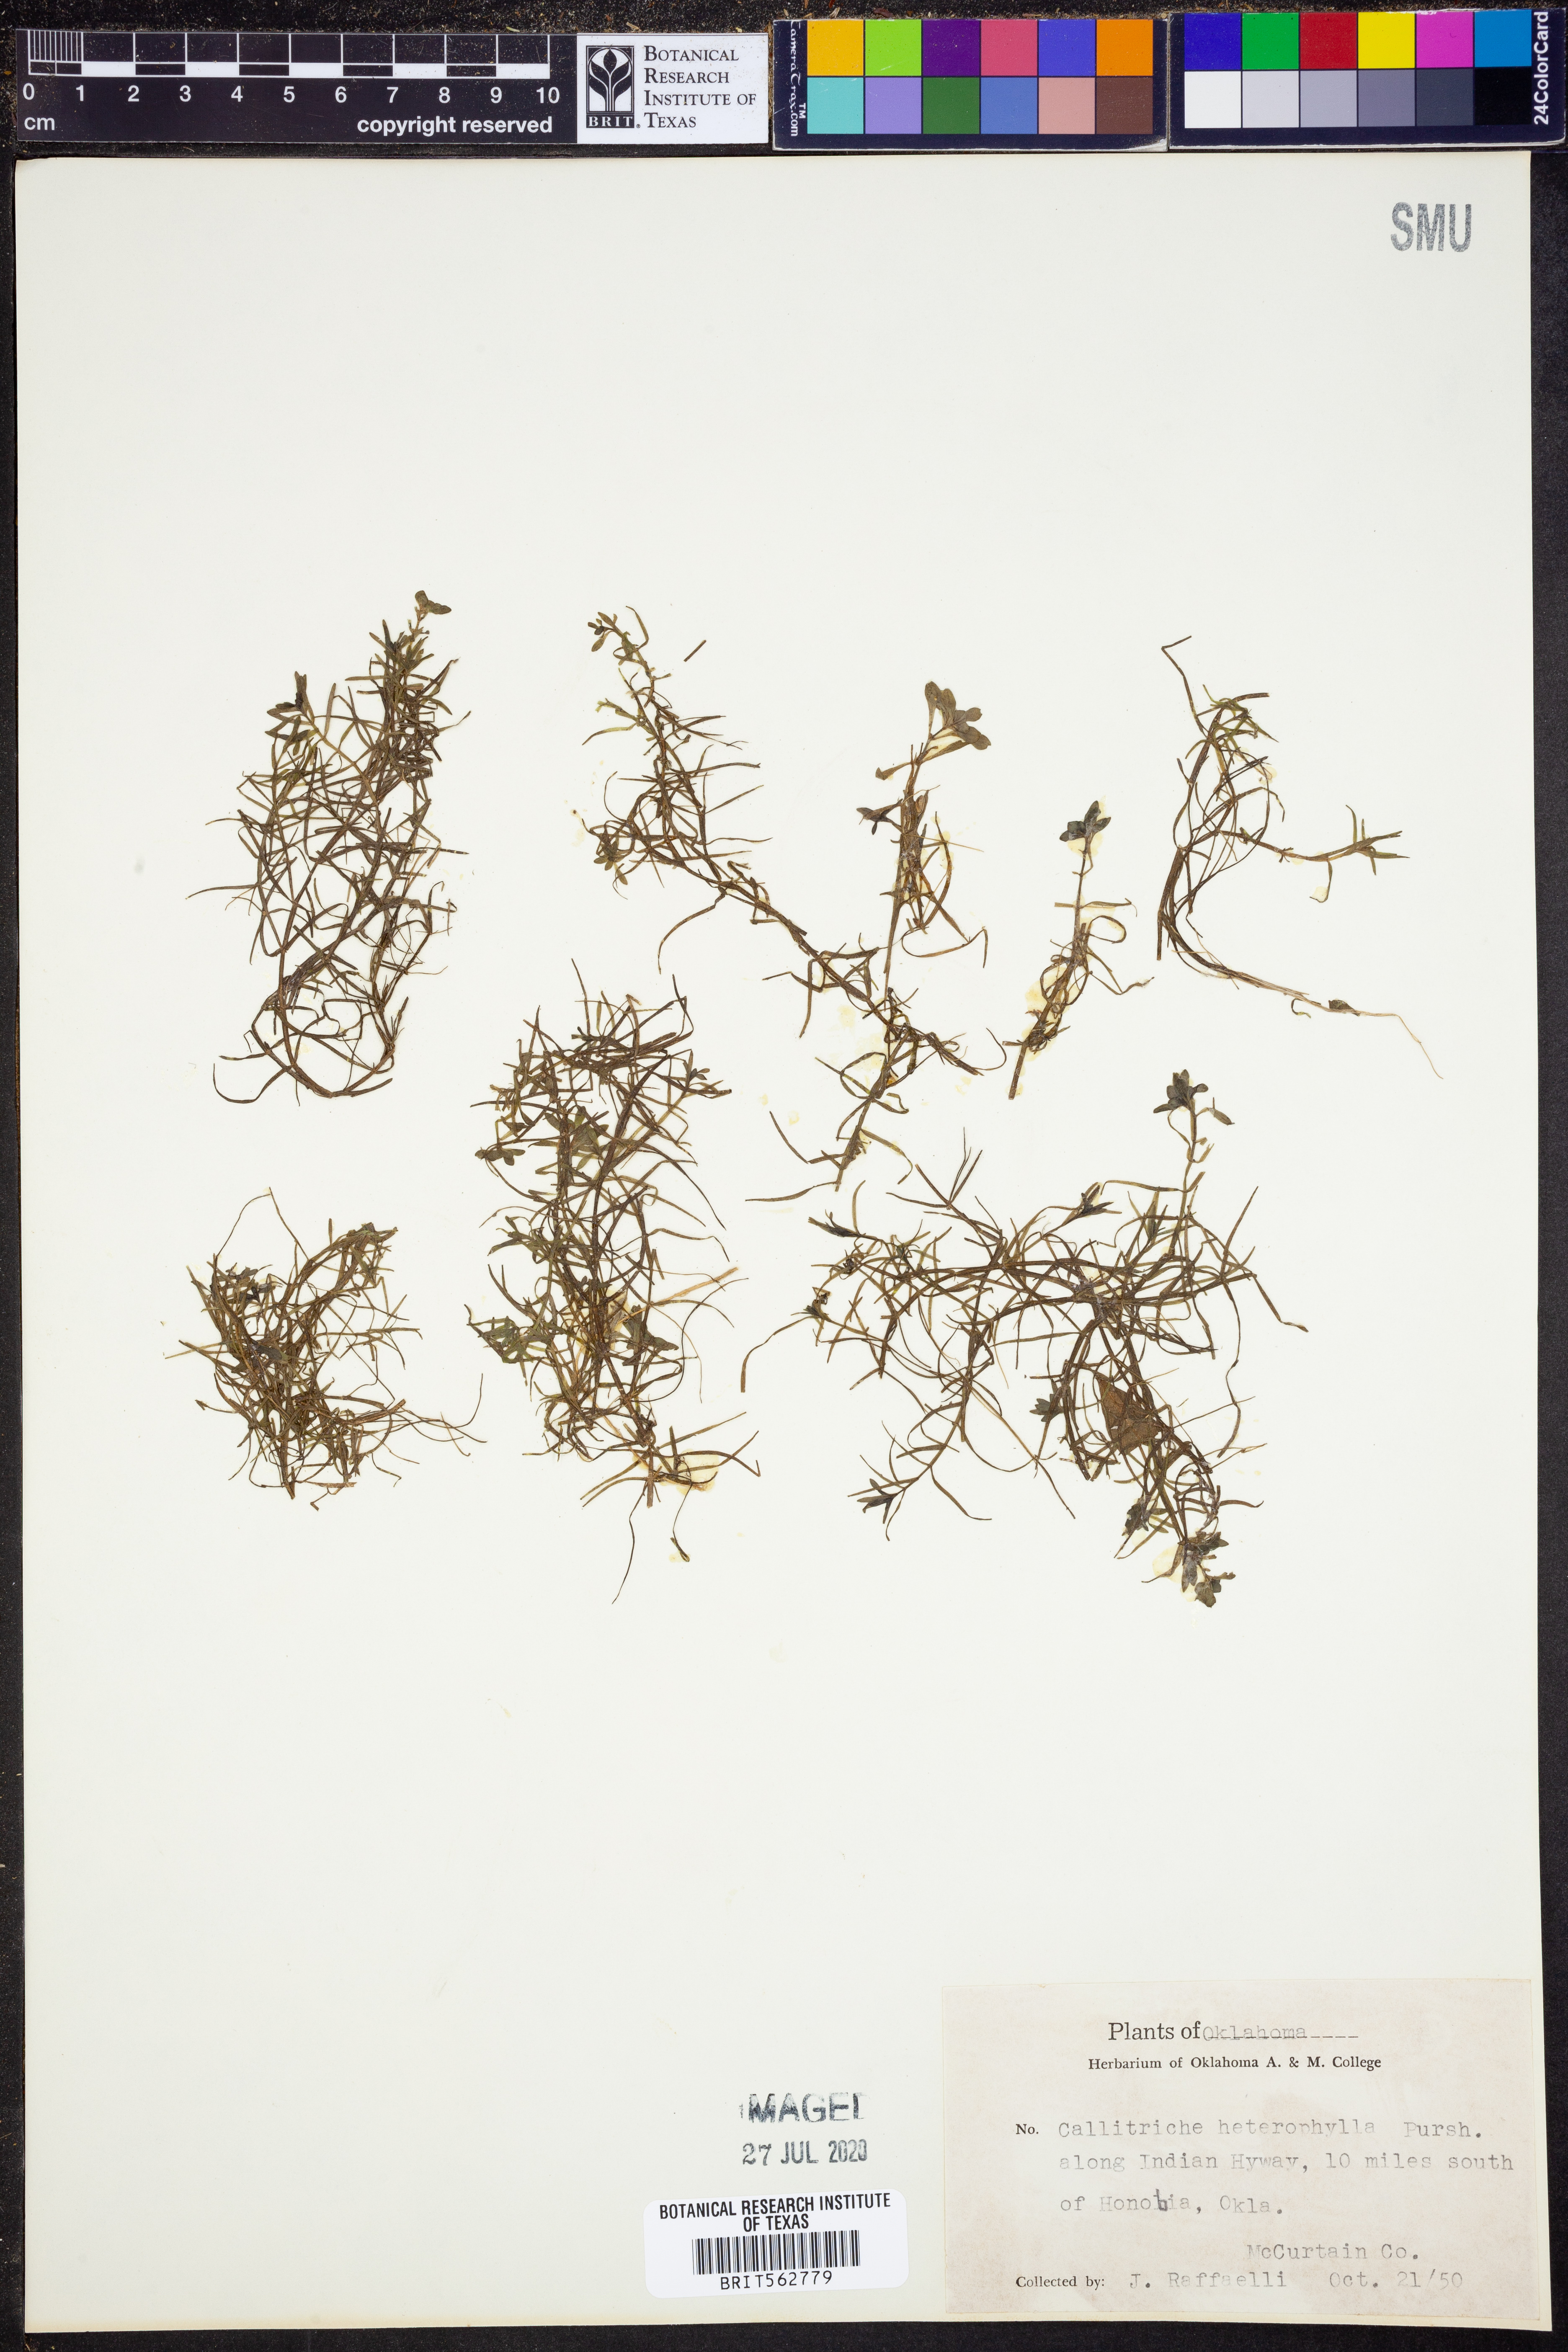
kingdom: Plantae
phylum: Tracheophyta
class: Magnoliopsida
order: Lamiales
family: Plantaginaceae
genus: Callitriche
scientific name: Callitriche heterophylla
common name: Two-headed water-starwort
